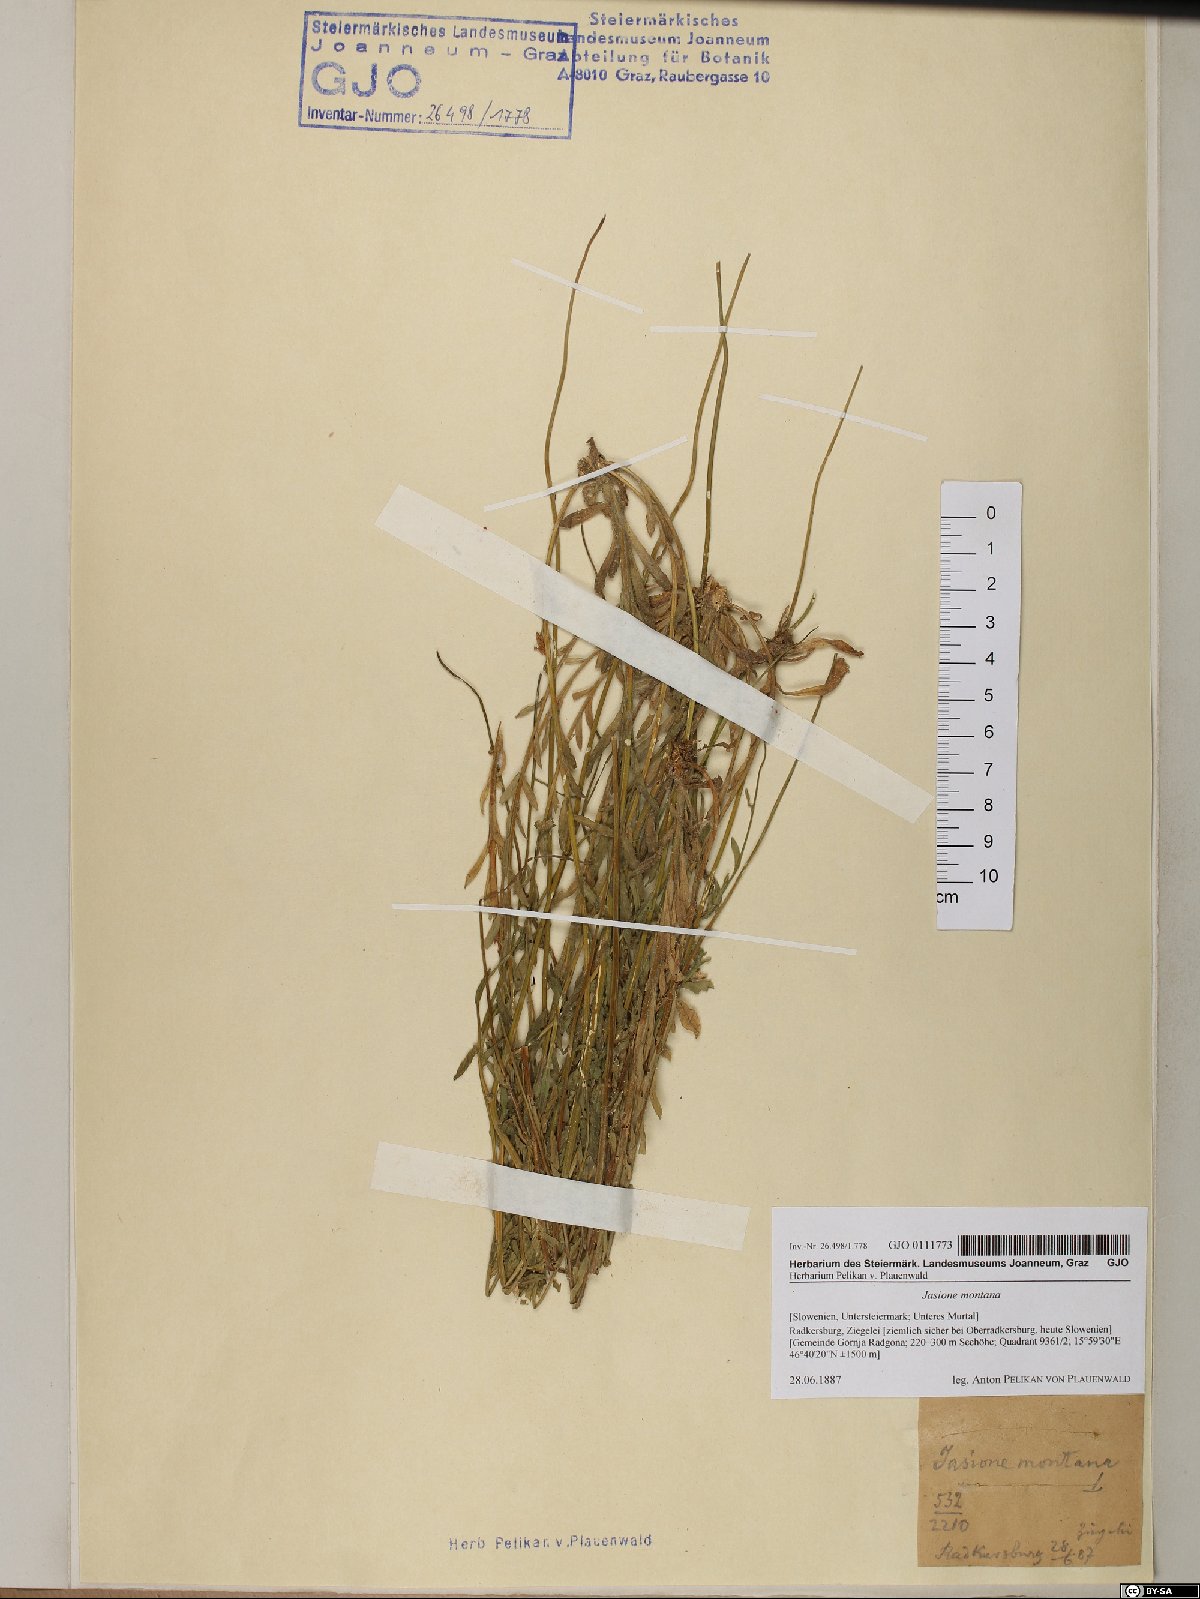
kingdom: Plantae
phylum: Tracheophyta
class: Magnoliopsida
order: Asterales
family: Campanulaceae
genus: Jasione
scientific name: Jasione montana
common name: Sheep's-bit
